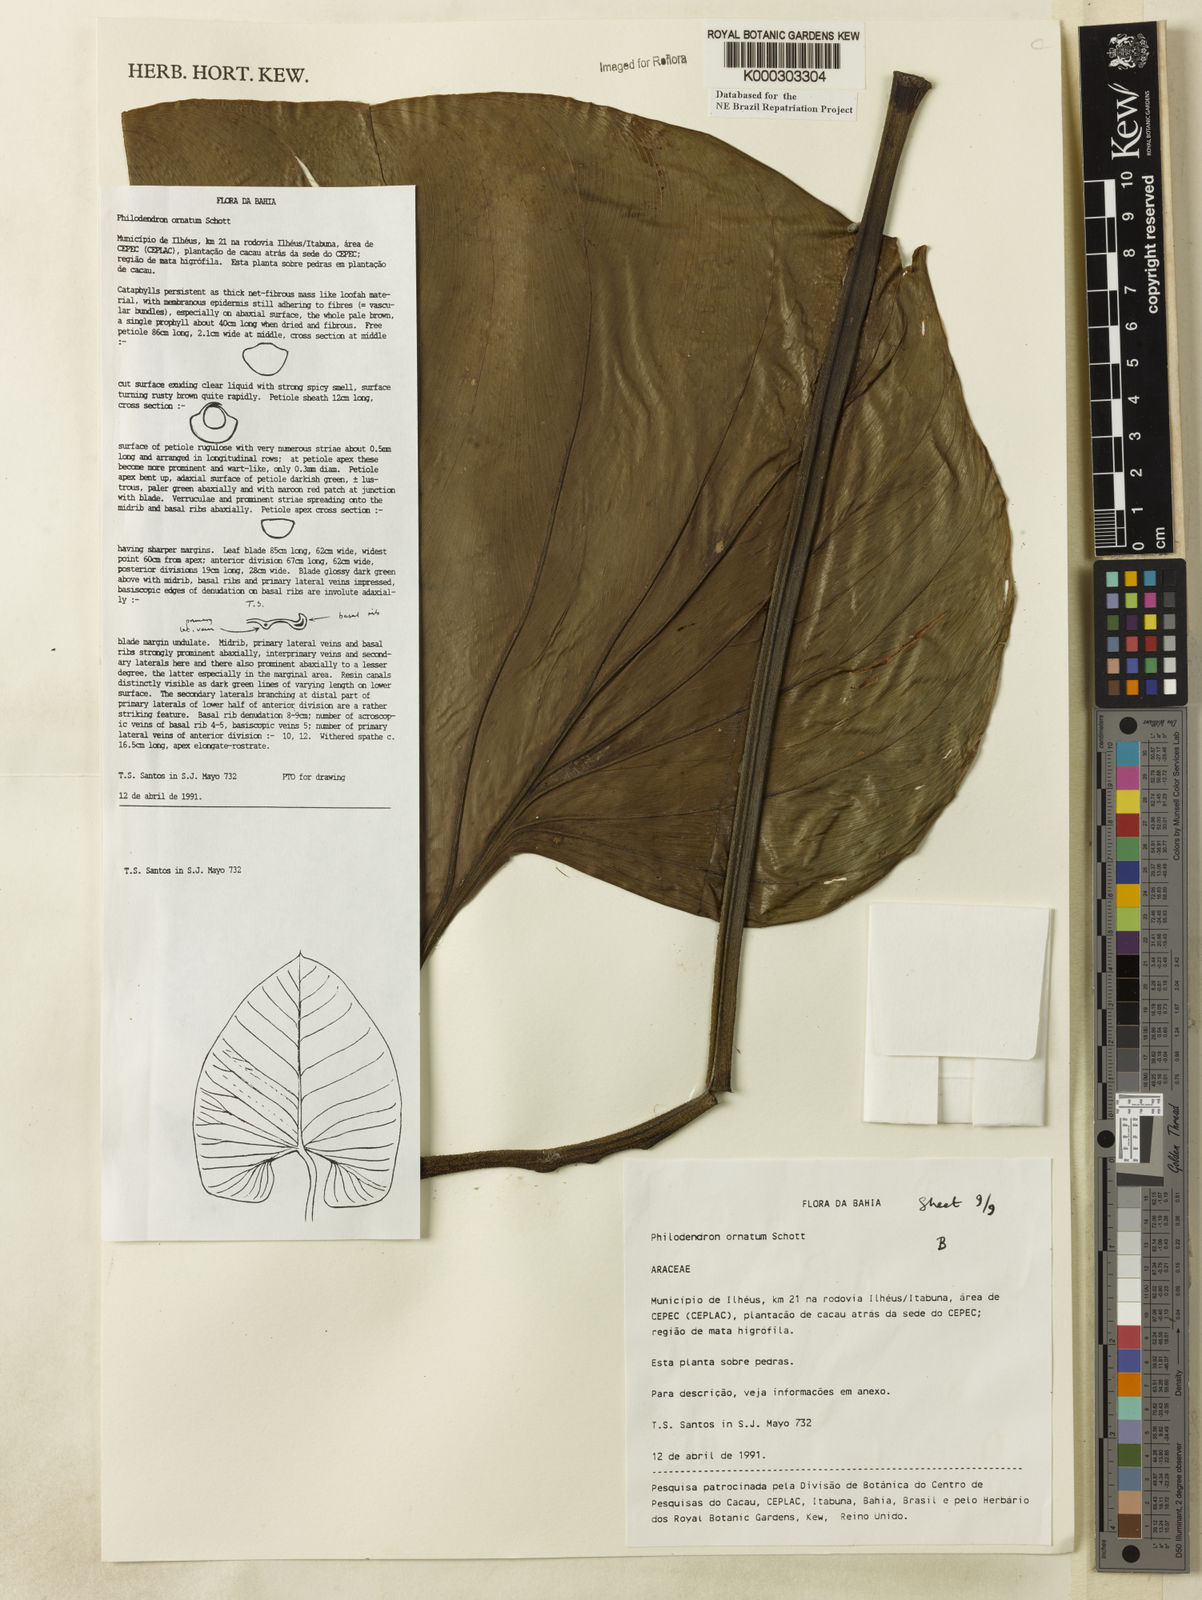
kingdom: Plantae
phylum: Tracheophyta
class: Liliopsida
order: Alismatales
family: Araceae
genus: Philodendron
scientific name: Philodendron ornatum
